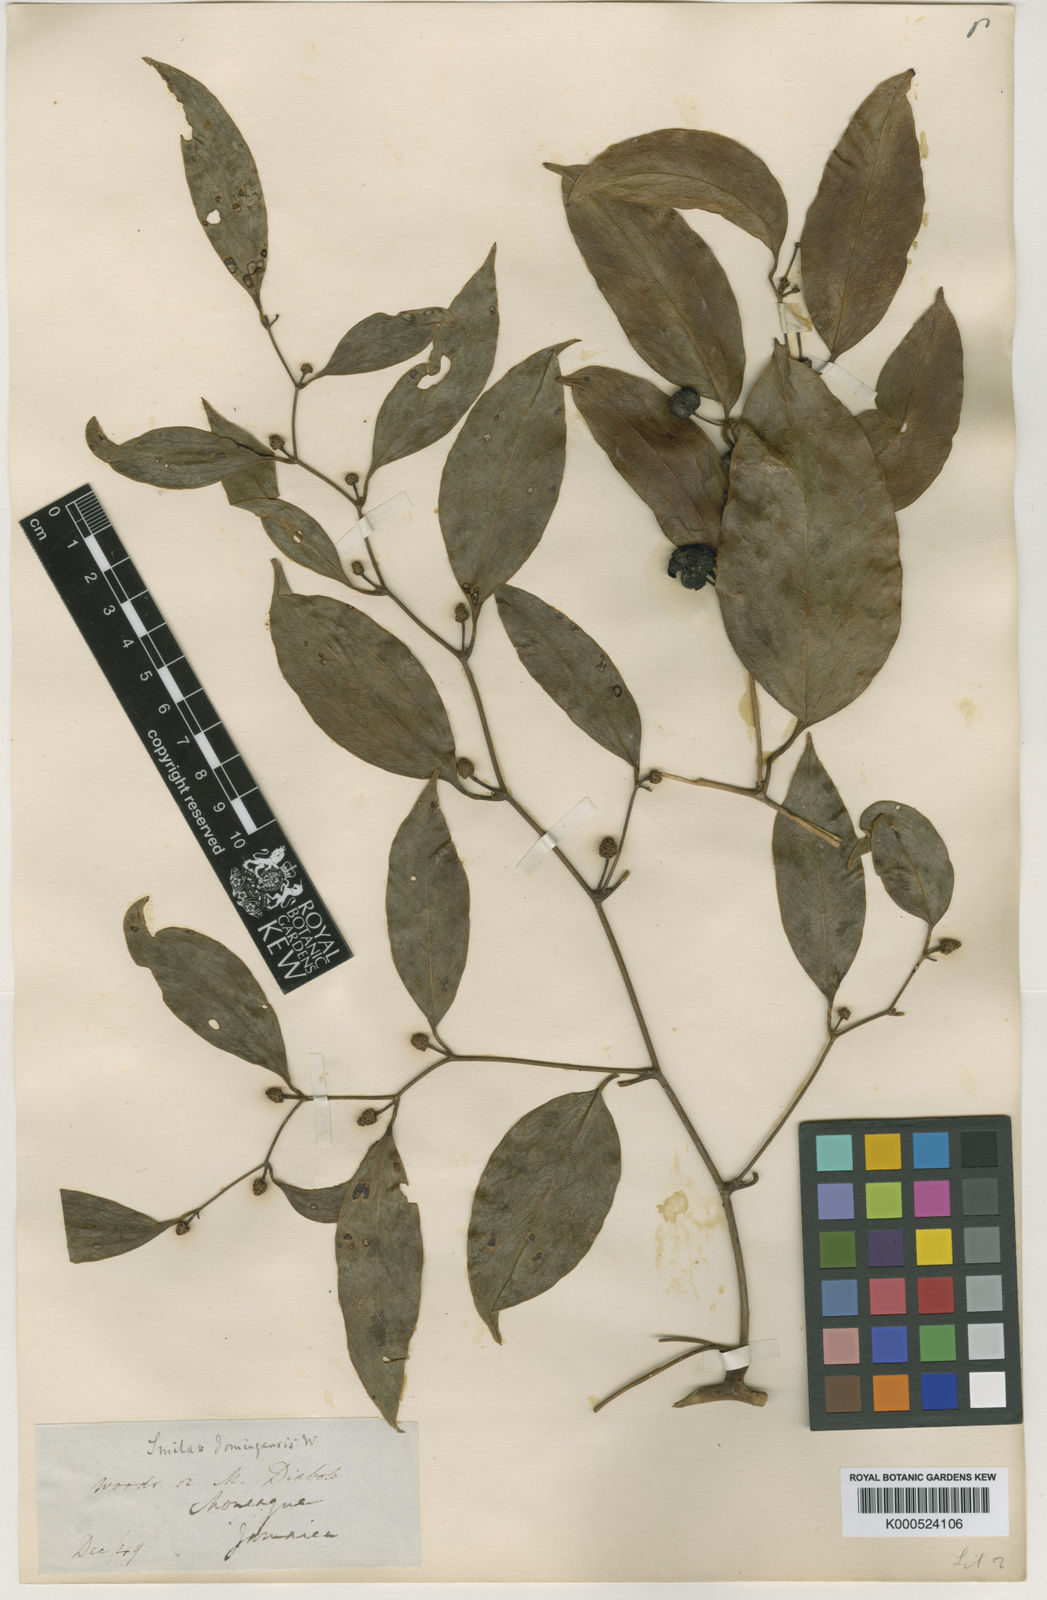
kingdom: Plantae
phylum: Tracheophyta
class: Liliopsida
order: Liliales
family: Smilacaceae
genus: Smilax
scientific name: Smilax domingensis
